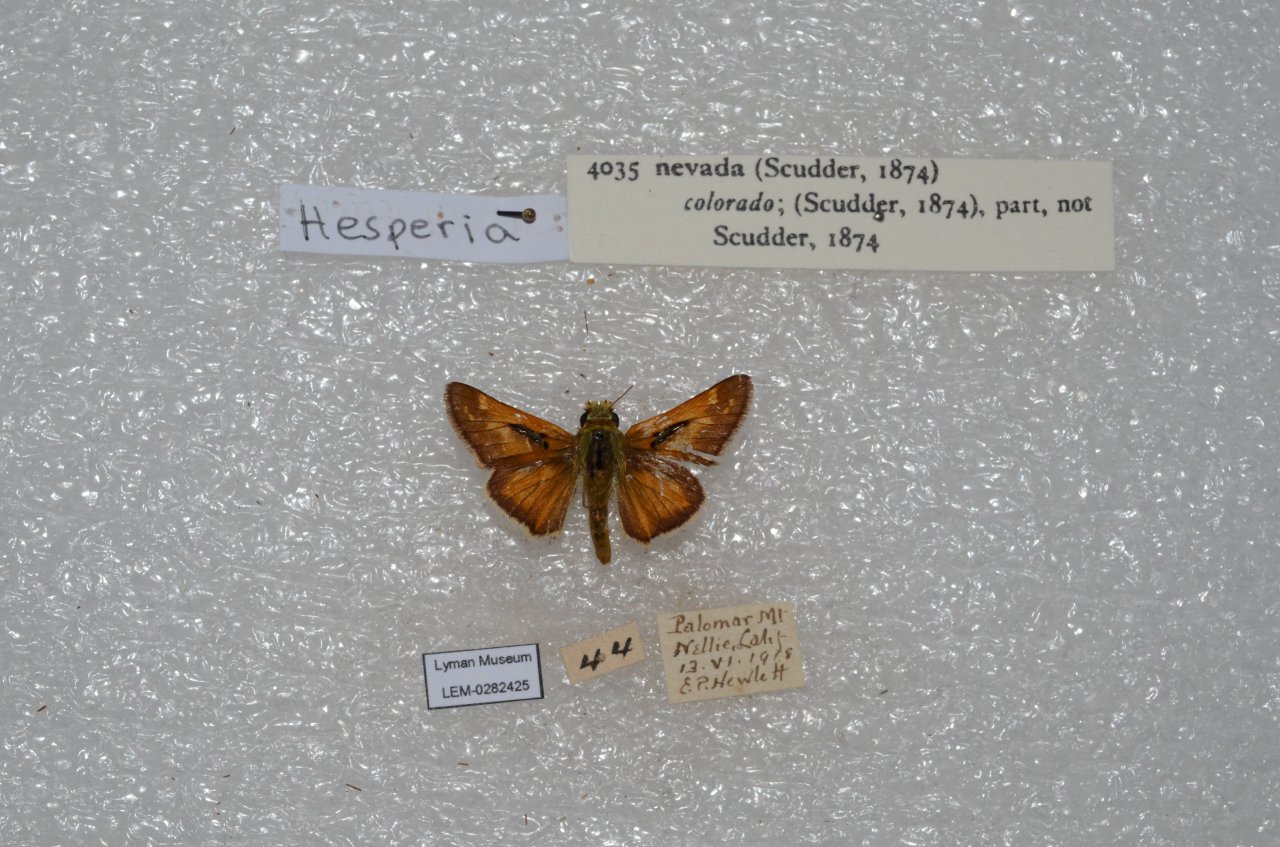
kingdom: Animalia
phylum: Arthropoda
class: Insecta
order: Lepidoptera
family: Hesperiidae
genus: Hesperia
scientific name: Hesperia nevada
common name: Nevada Skipper
